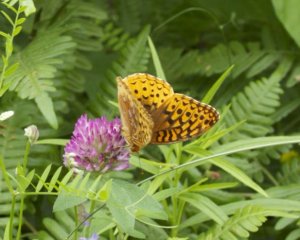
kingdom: Animalia
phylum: Arthropoda
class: Insecta
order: Lepidoptera
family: Nymphalidae
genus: Speyeria
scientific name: Speyeria cybele
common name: Great Spangled Fritillary
